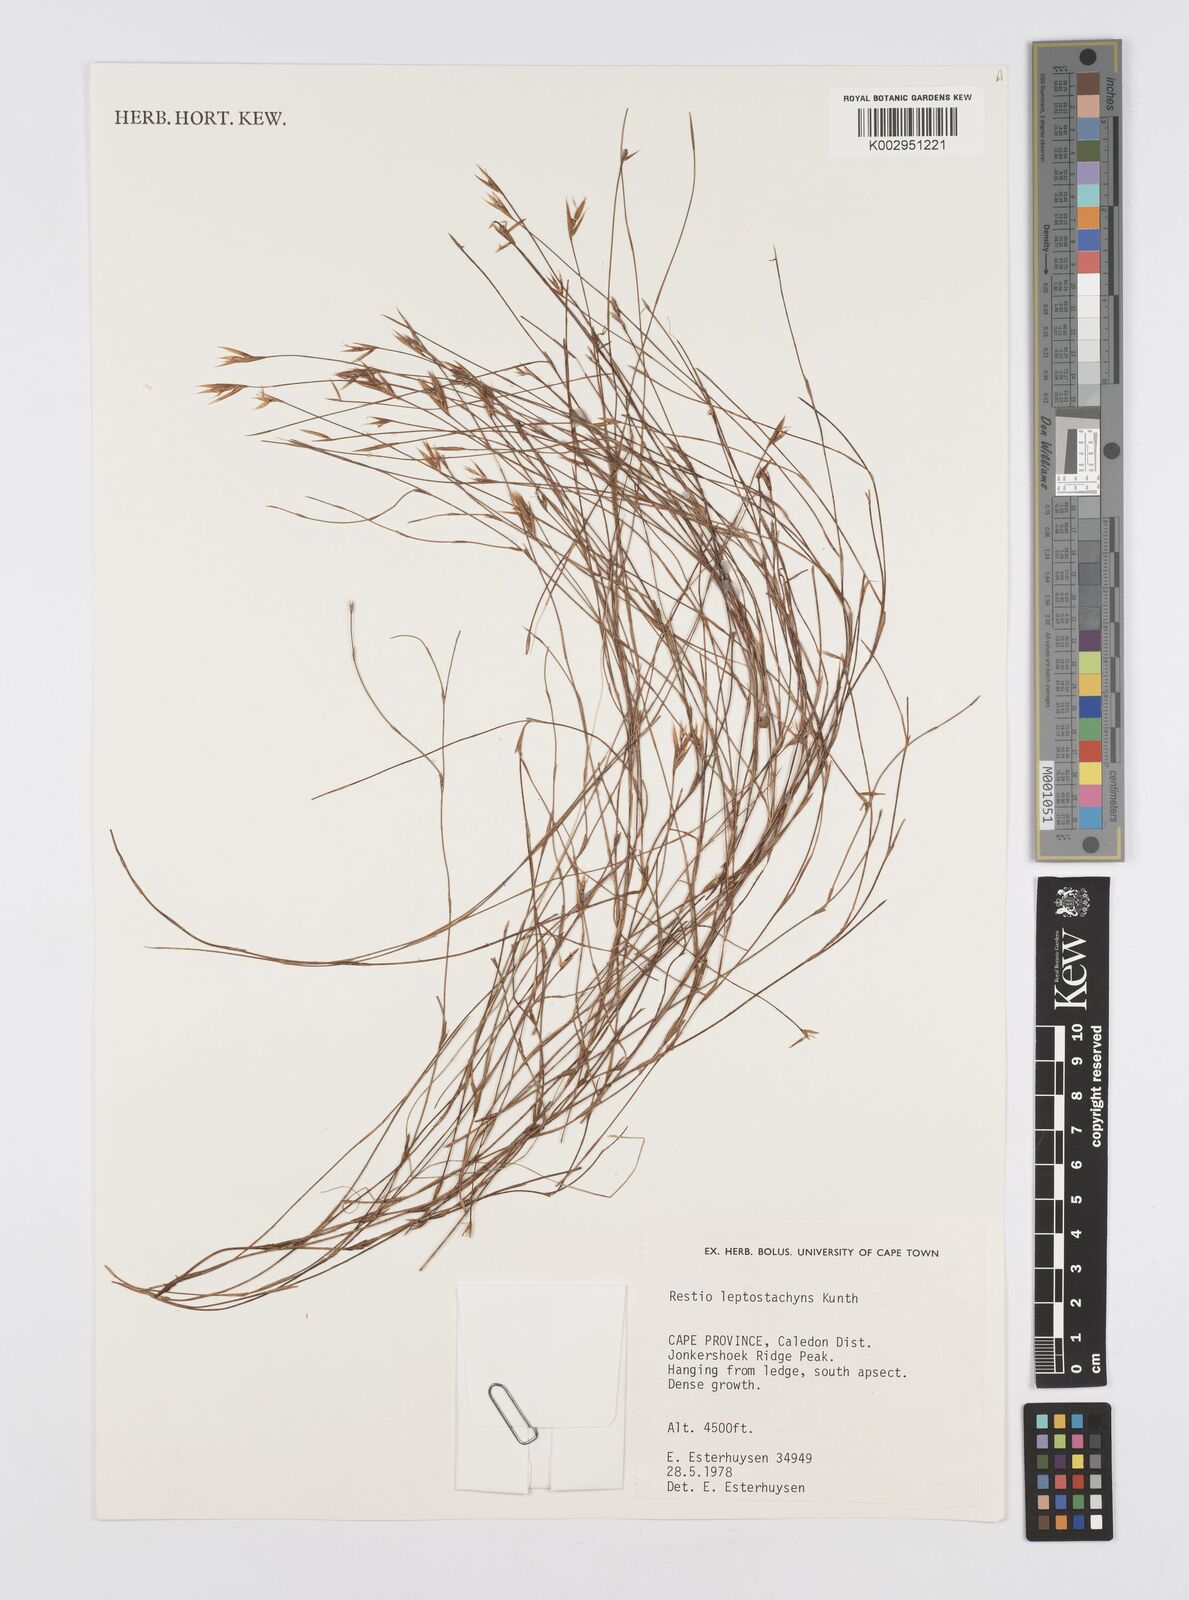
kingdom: Plantae
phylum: Tracheophyta
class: Liliopsida
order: Poales
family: Restionaceae
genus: Restio
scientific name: Restio leptostachyus
